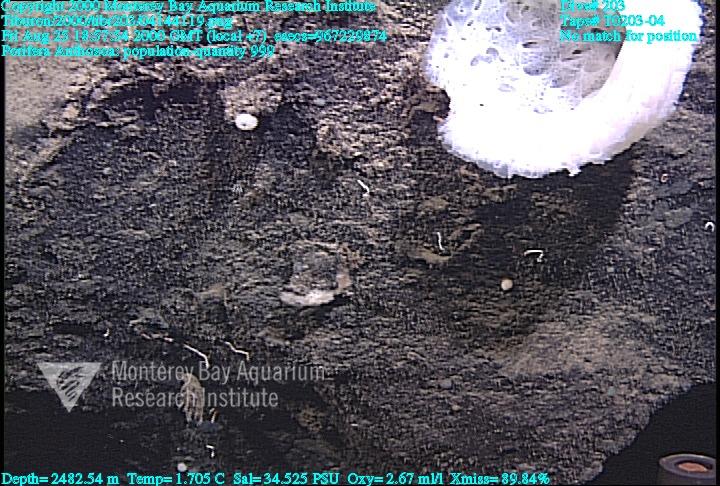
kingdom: Animalia
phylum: Porifera
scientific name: Porifera
